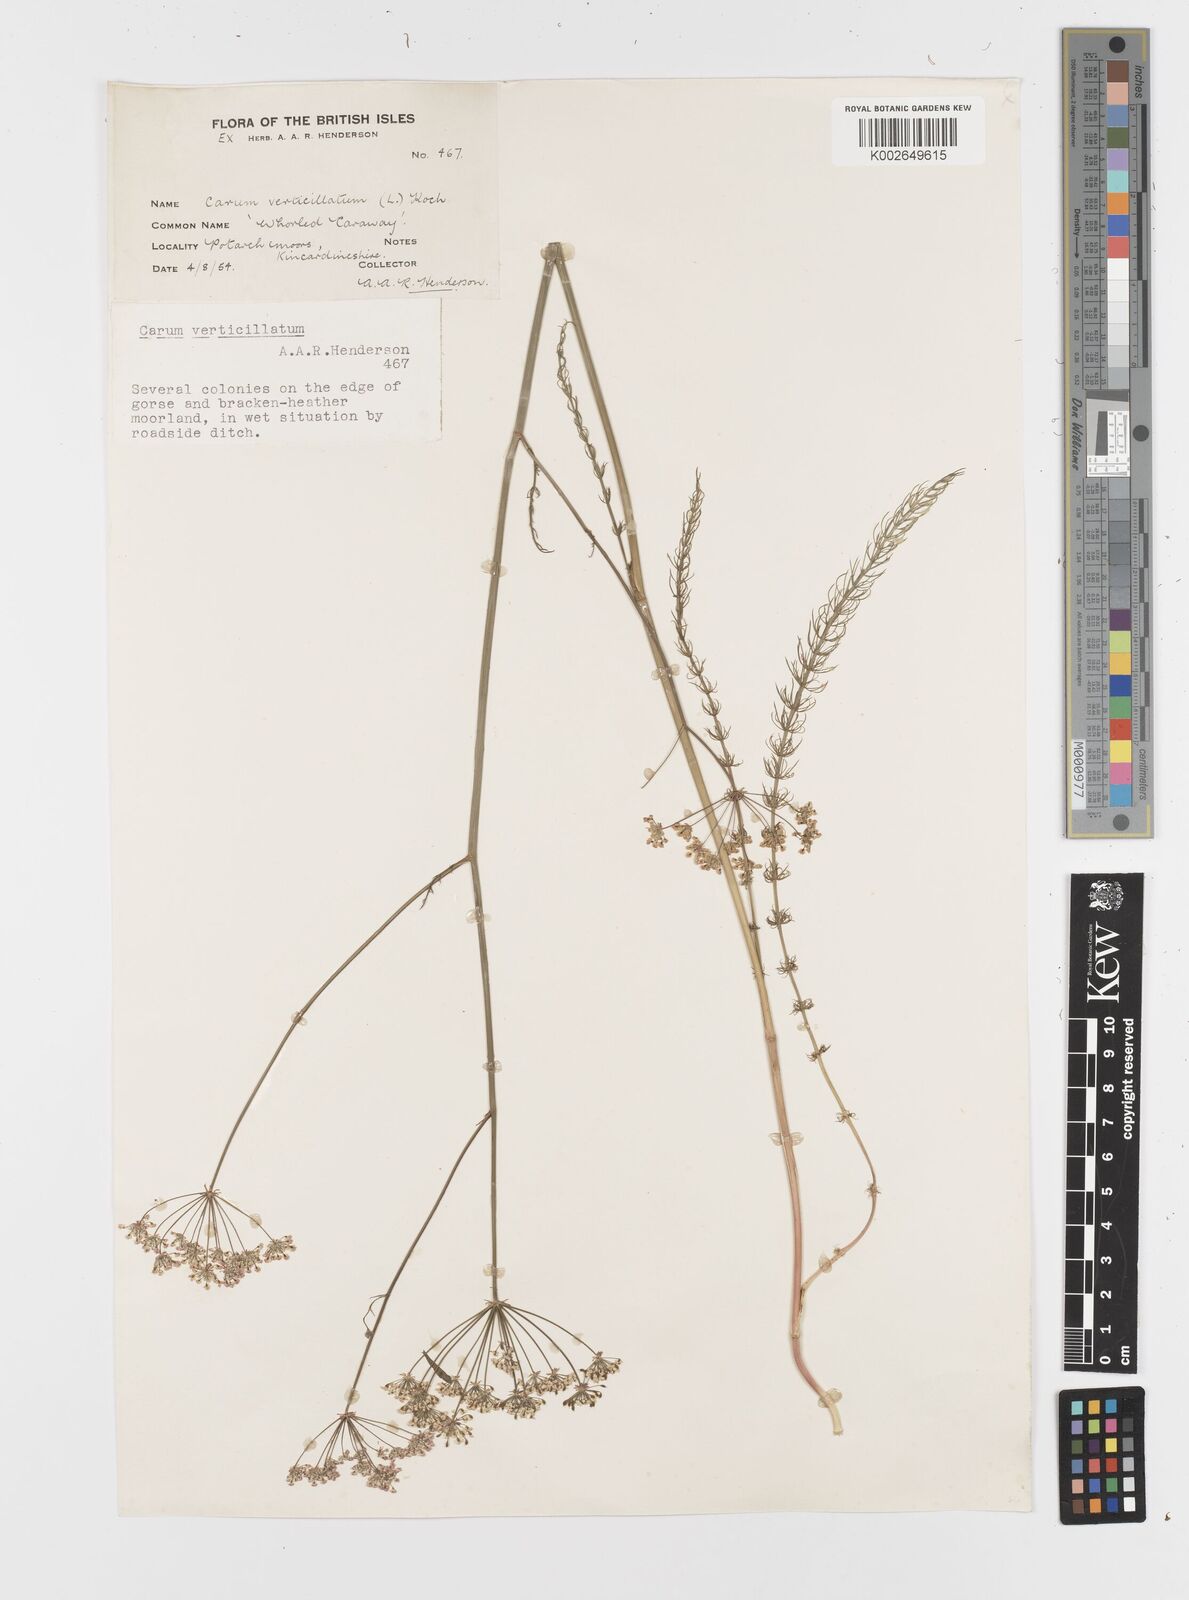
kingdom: Plantae
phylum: Tracheophyta
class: Magnoliopsida
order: Apiales
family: Apiaceae
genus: Trocdaris
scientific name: Trocdaris verticillatum
